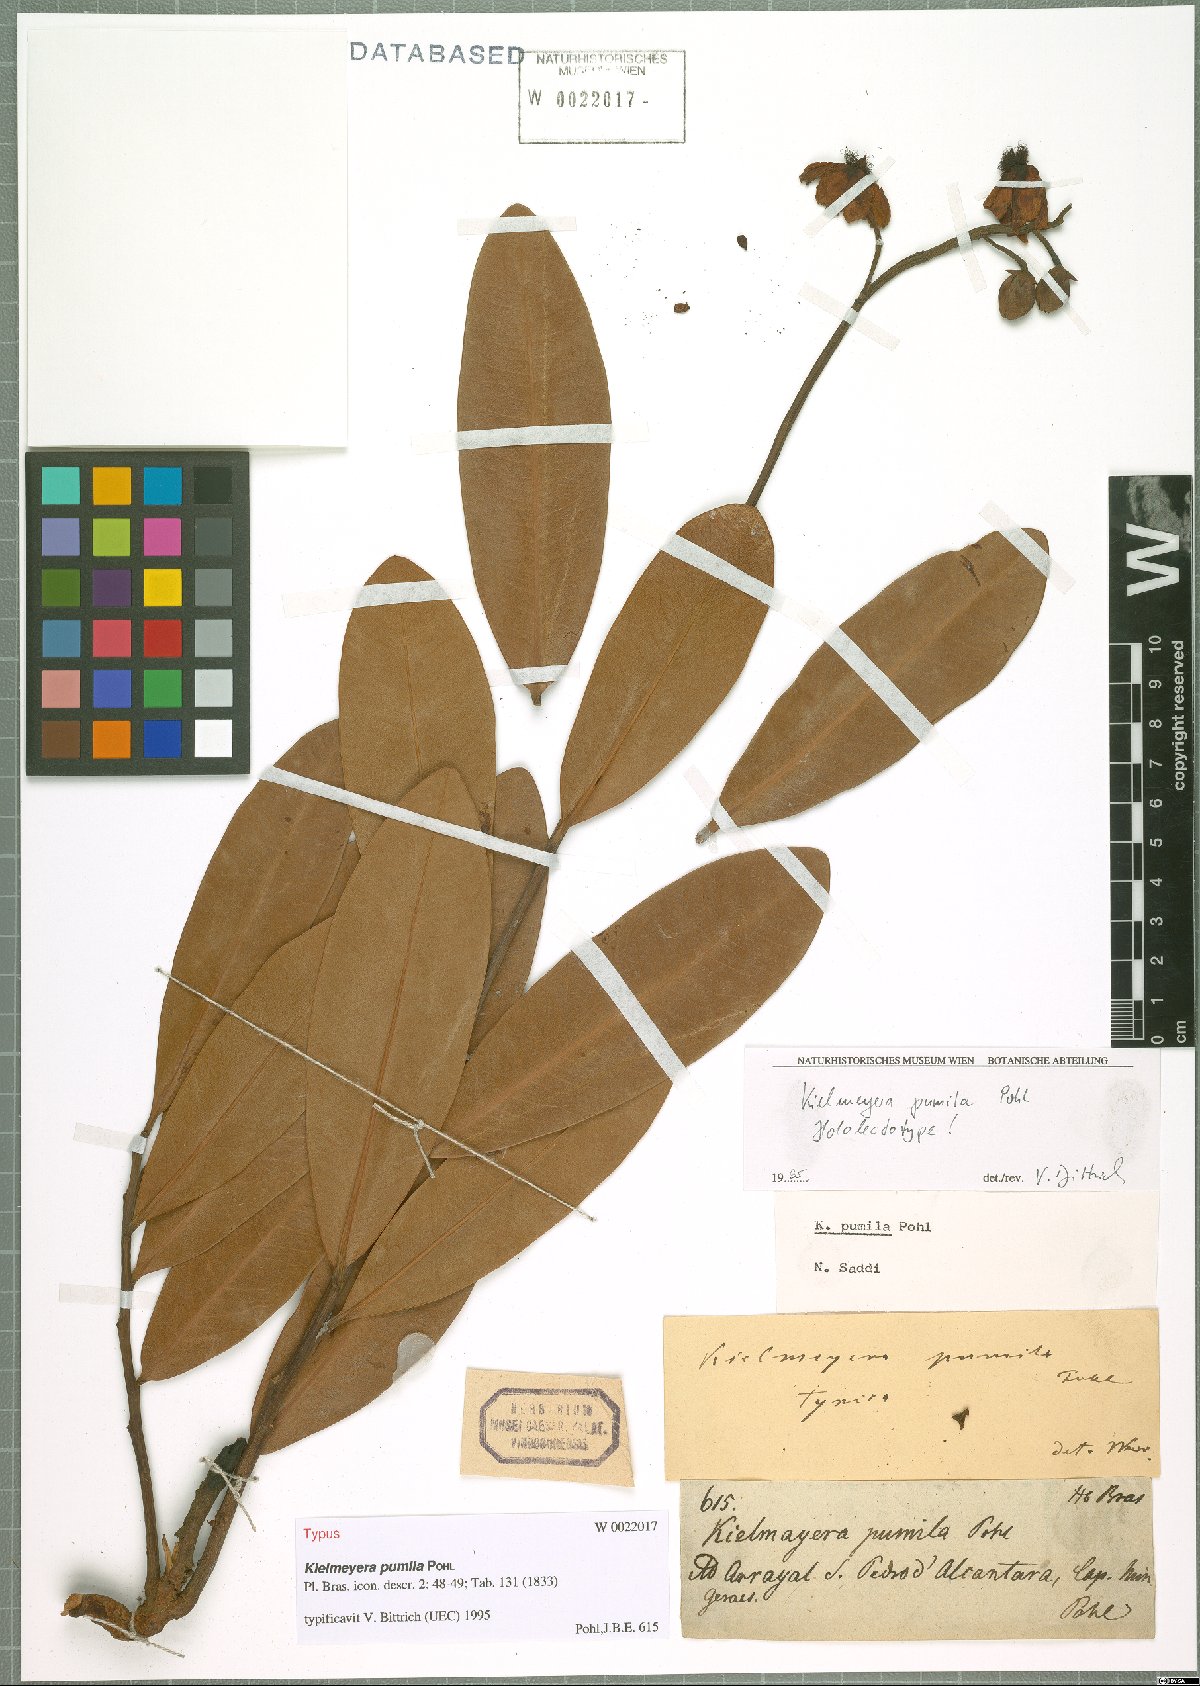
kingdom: Plantae
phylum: Tracheophyta
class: Magnoliopsida
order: Malpighiales
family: Calophyllaceae
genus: Kielmeyera
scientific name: Kielmeyera pumila
